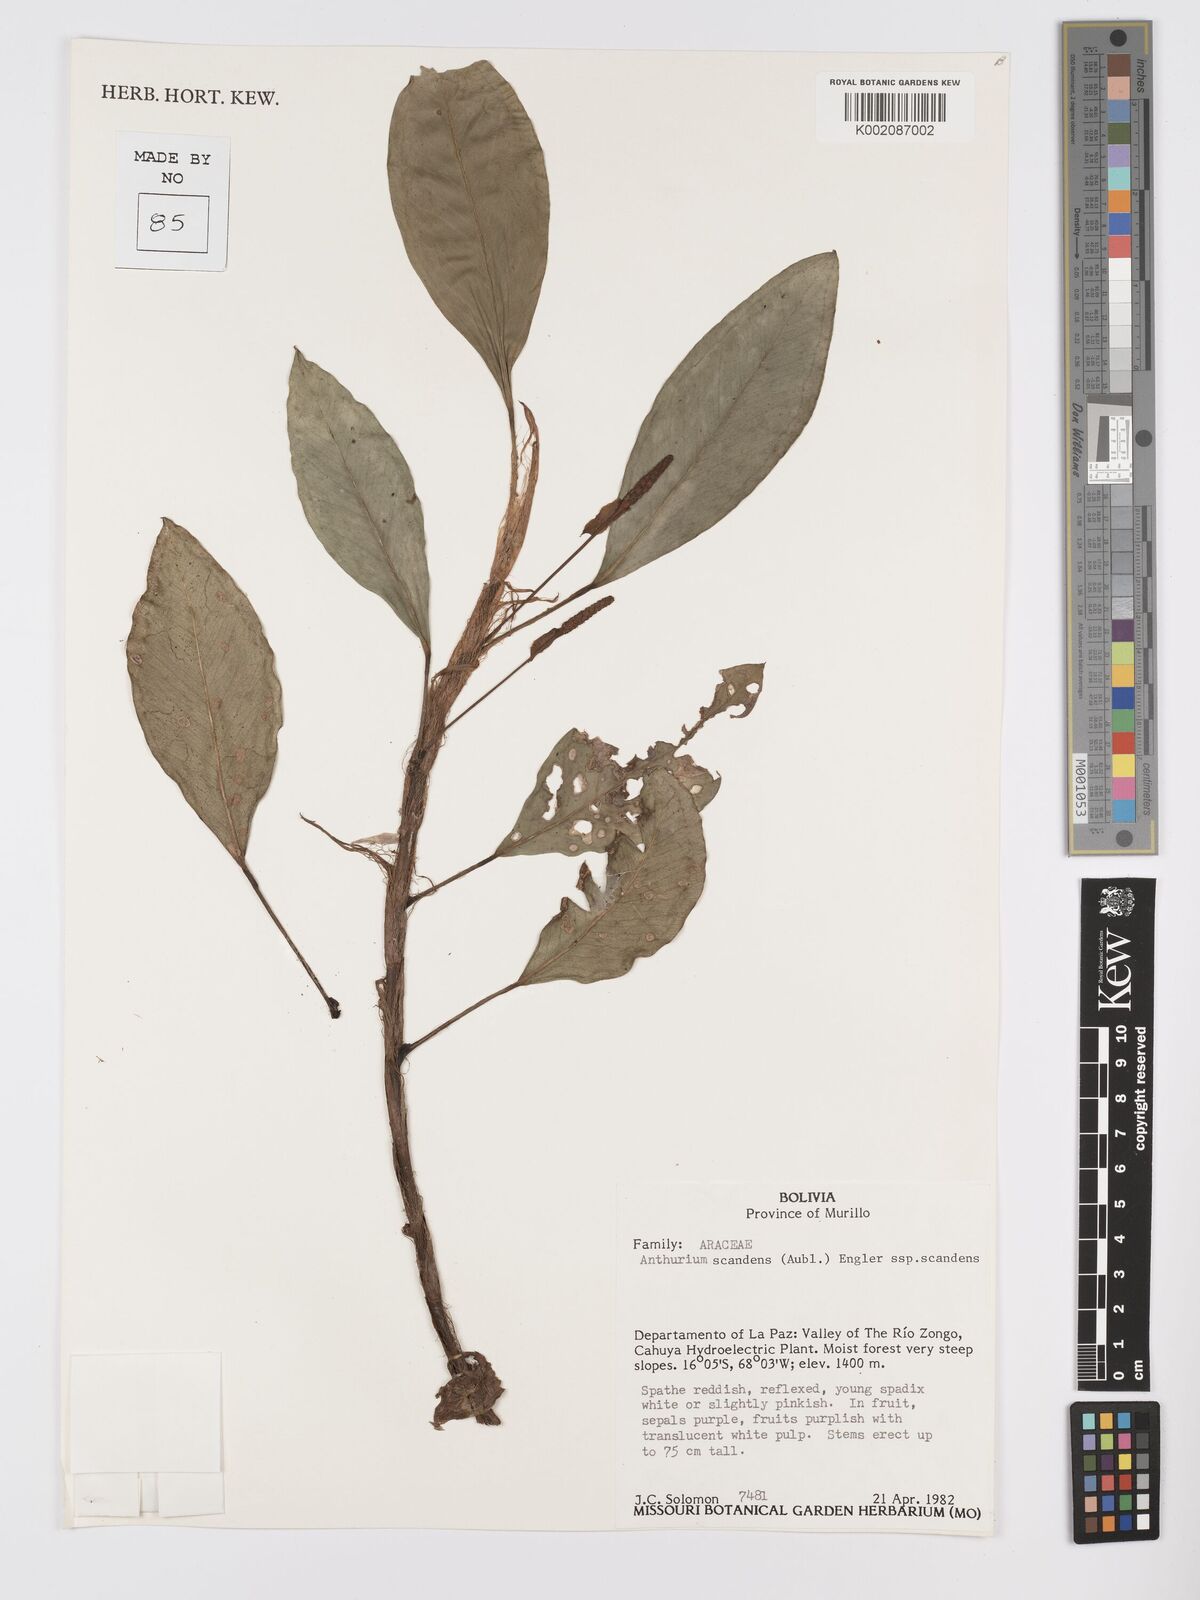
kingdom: Plantae
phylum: Tracheophyta
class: Liliopsida
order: Alismatales
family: Araceae
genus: Anthurium
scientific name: Anthurium scandens
